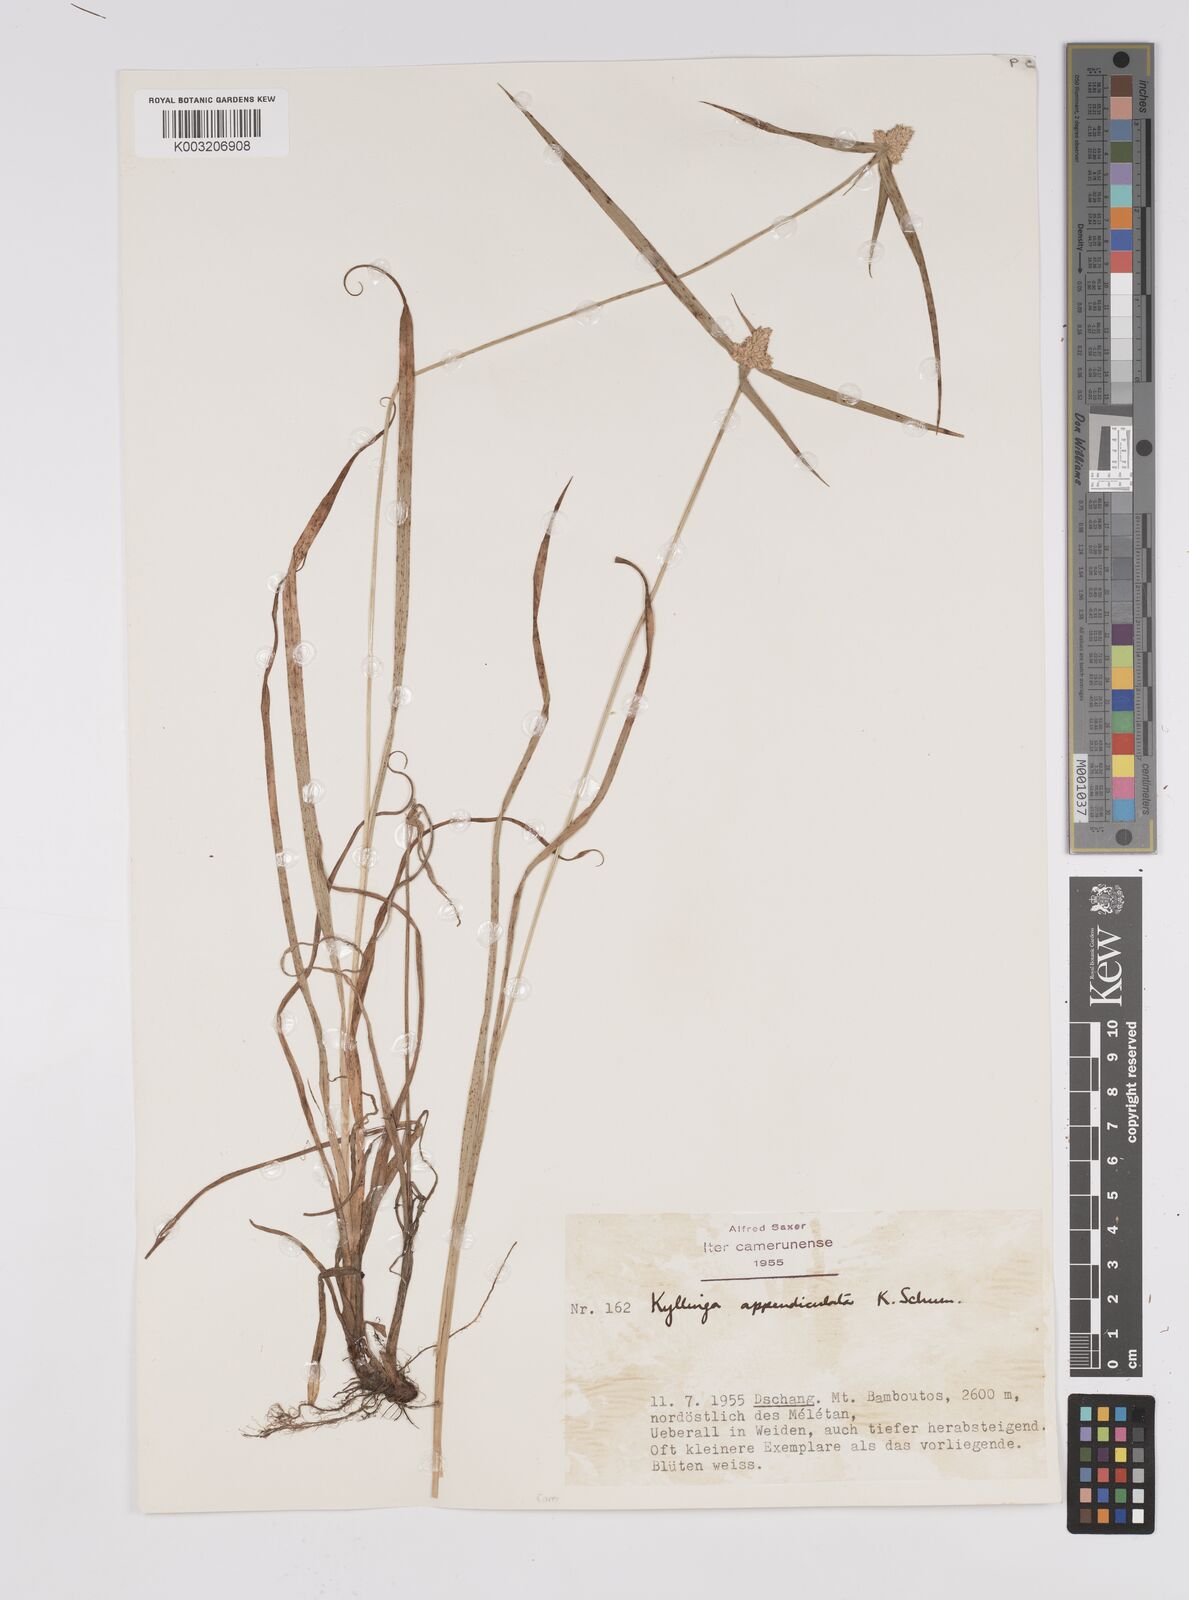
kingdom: Plantae
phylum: Tracheophyta
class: Liliopsida
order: Poales
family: Cyperaceae
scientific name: Cyperaceae
